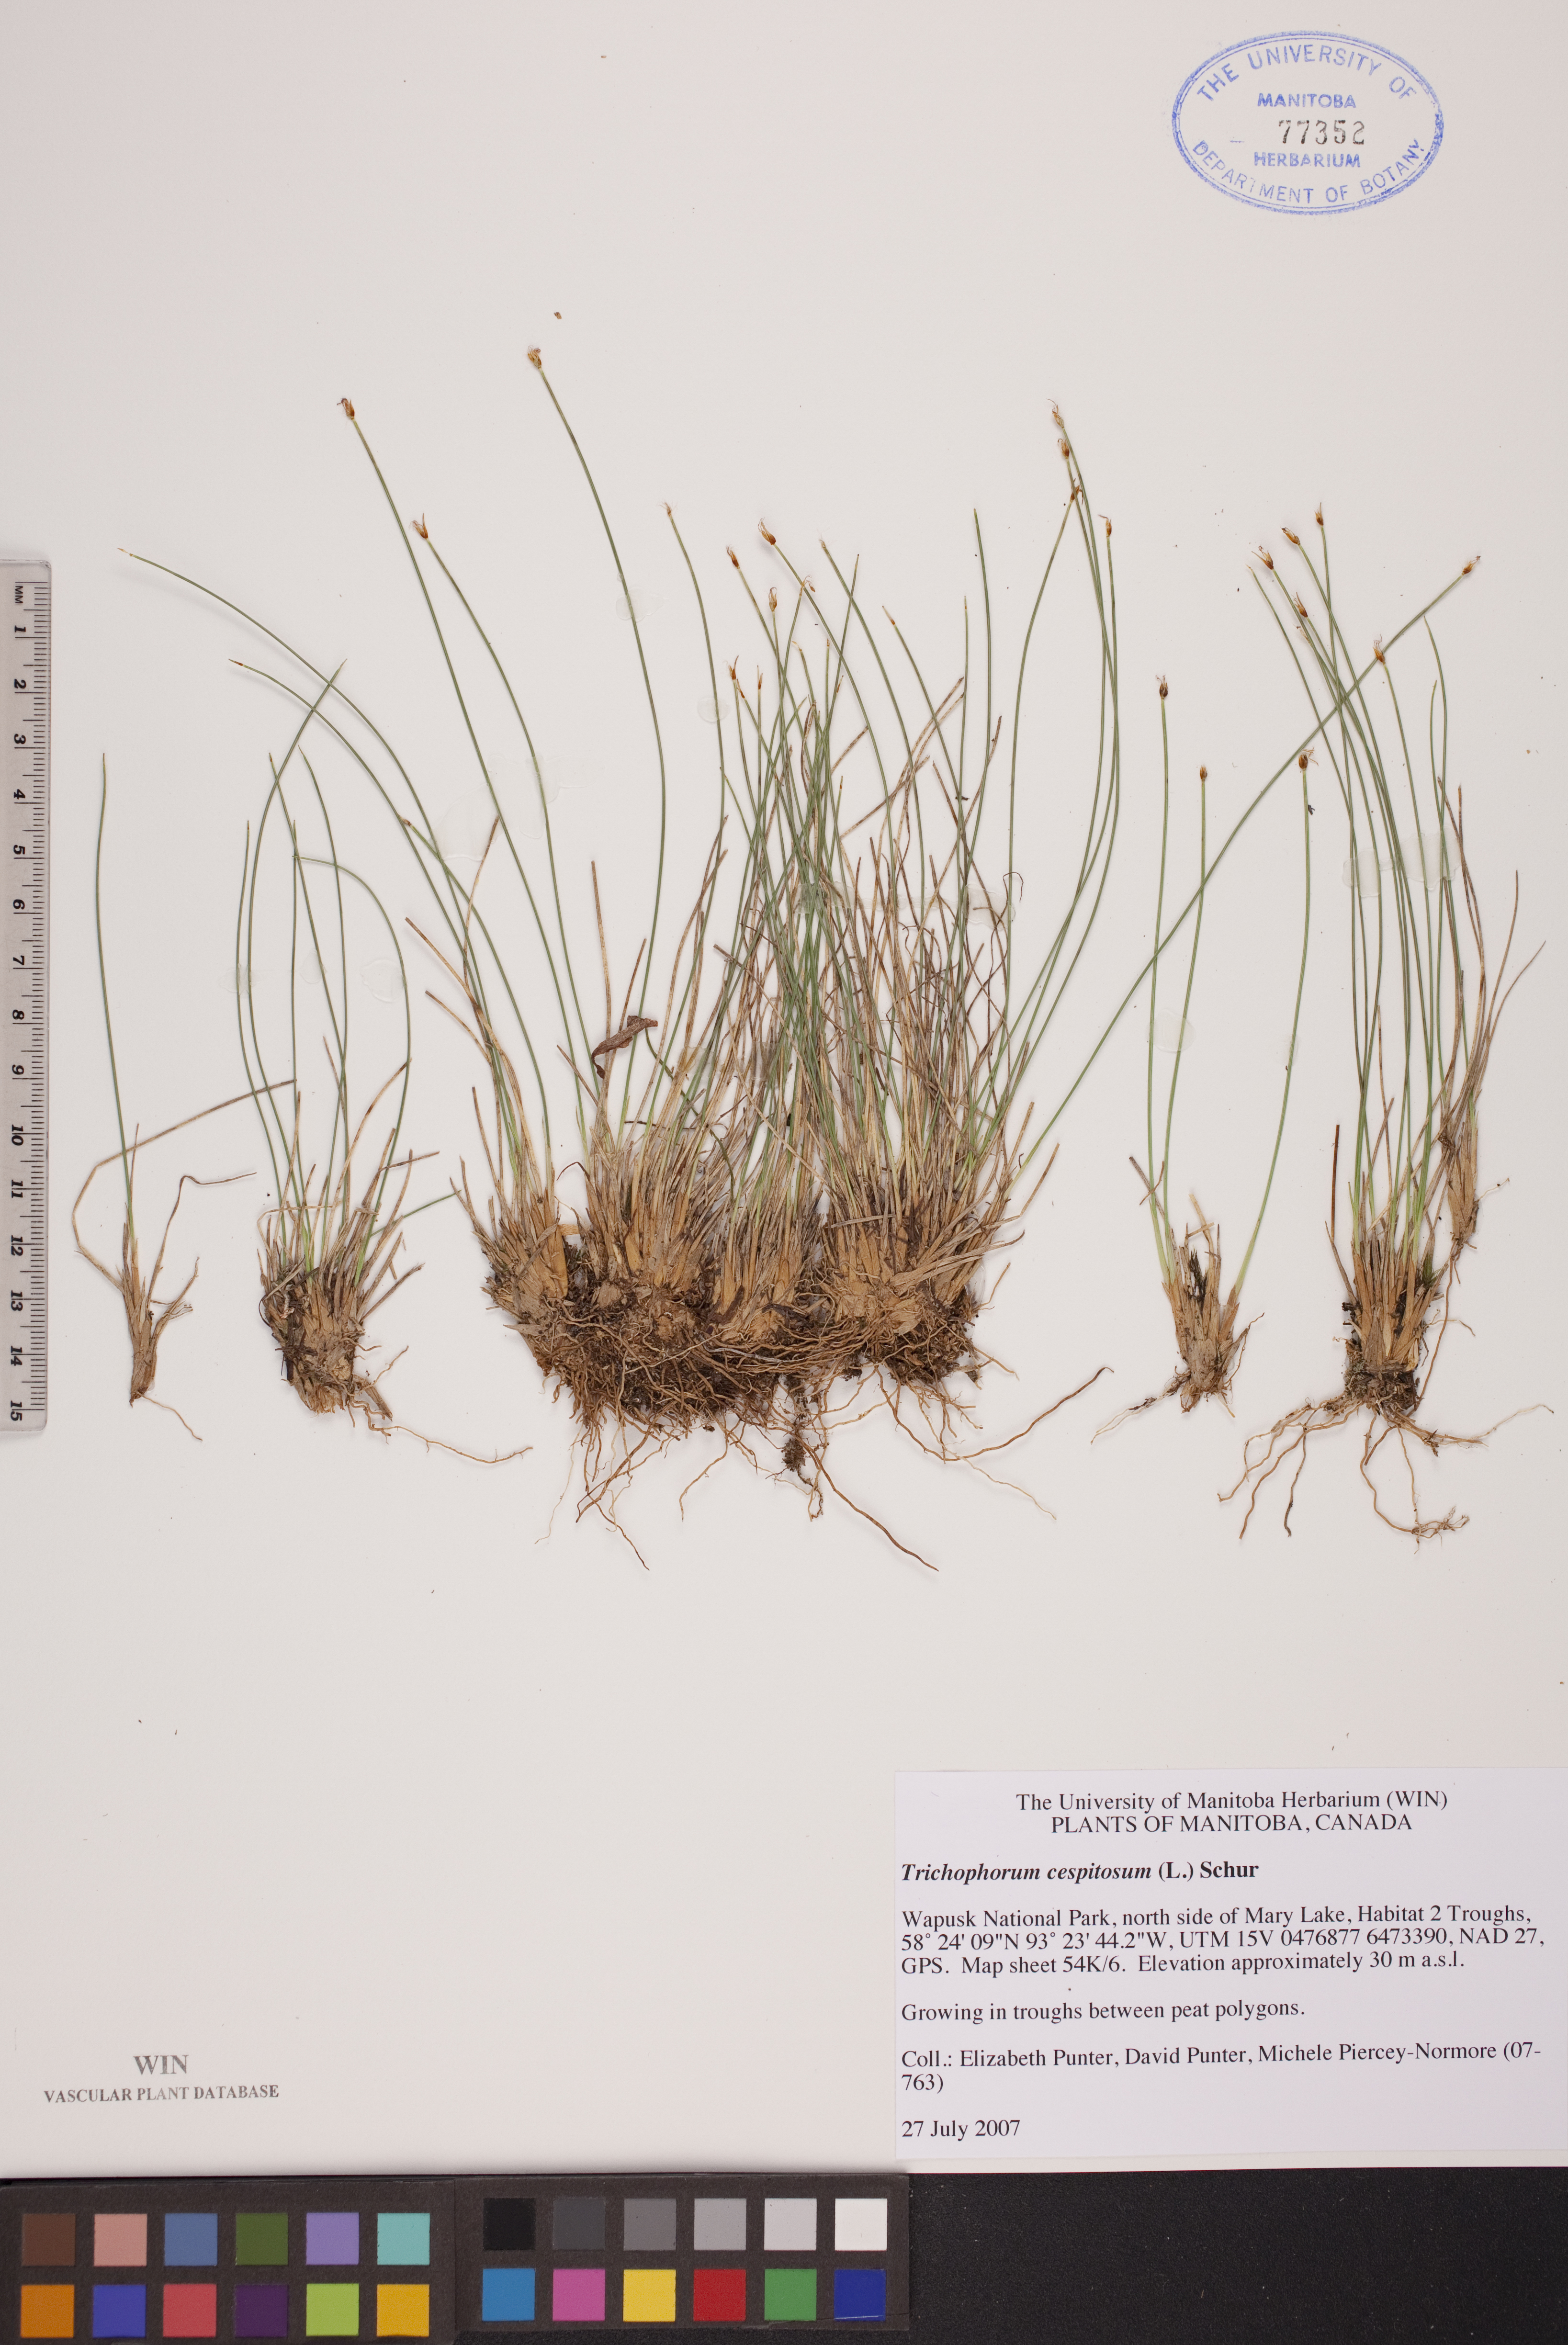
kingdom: Plantae
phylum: Tracheophyta
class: Liliopsida
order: Poales
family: Cyperaceae
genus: Trichophorum
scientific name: Trichophorum cespitosum
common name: Cespitose bulrush
